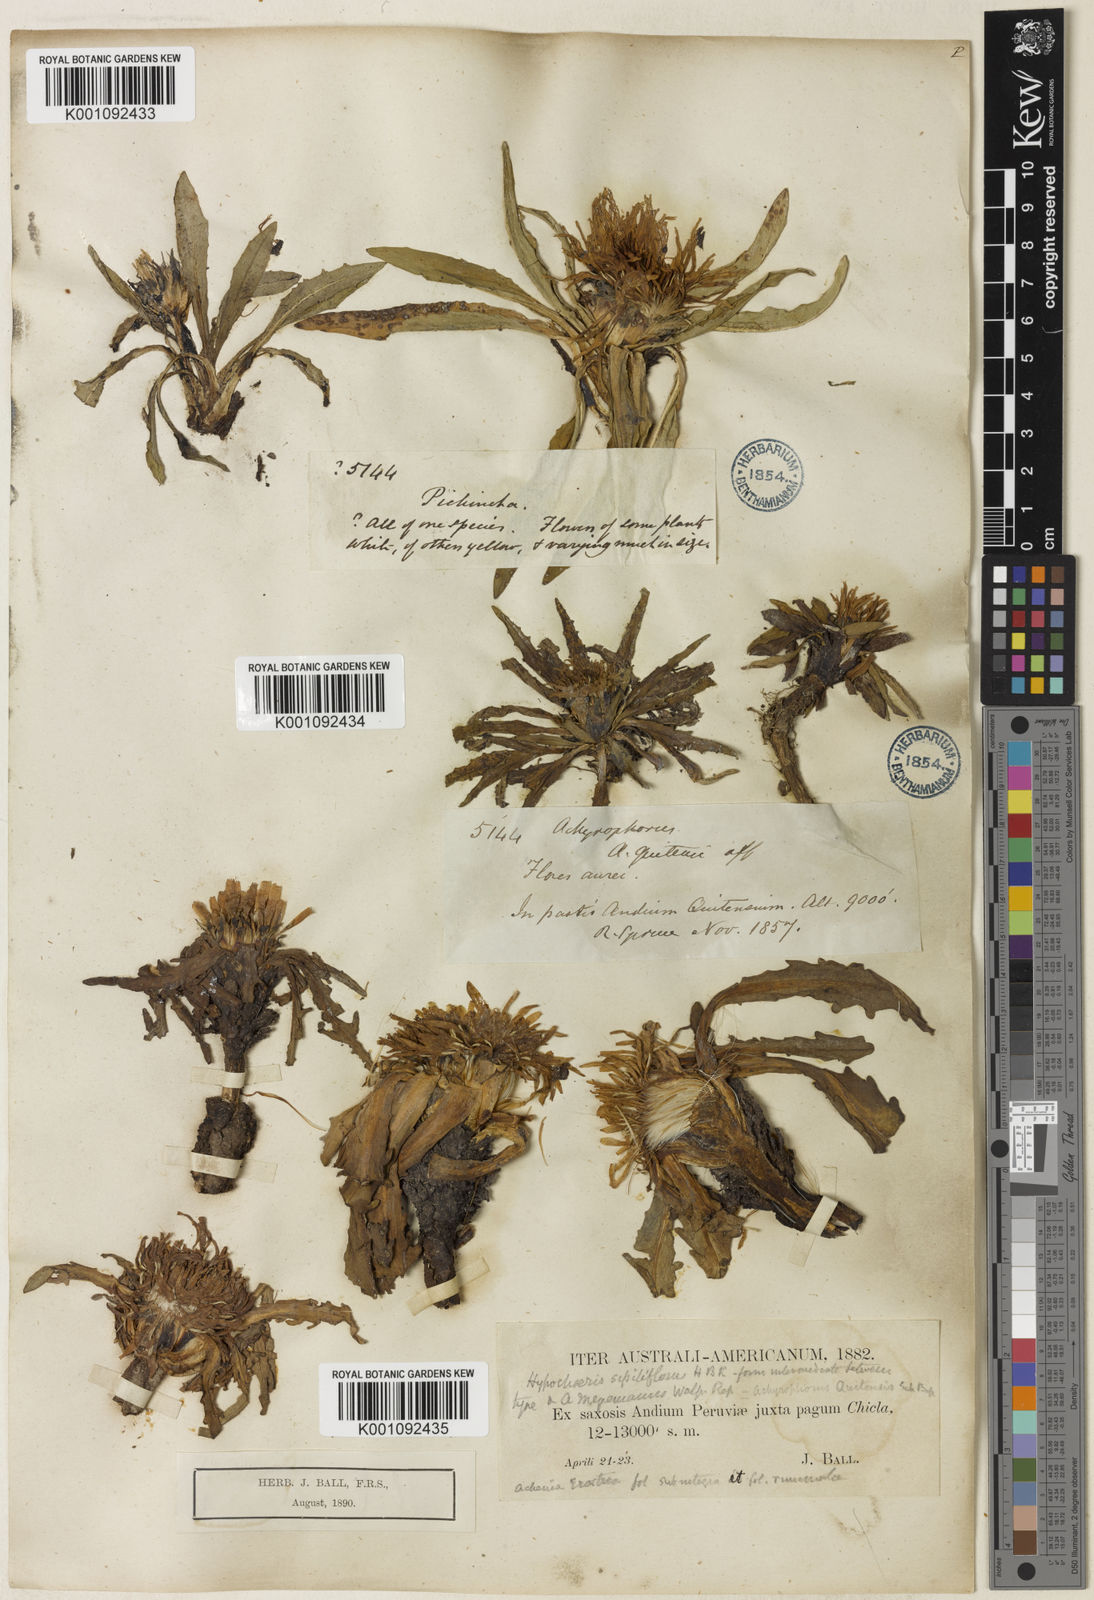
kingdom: Plantae
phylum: Tracheophyta
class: Magnoliopsida
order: Asterales
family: Asteraceae
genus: Hypochaeris
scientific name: Hypochaeris
